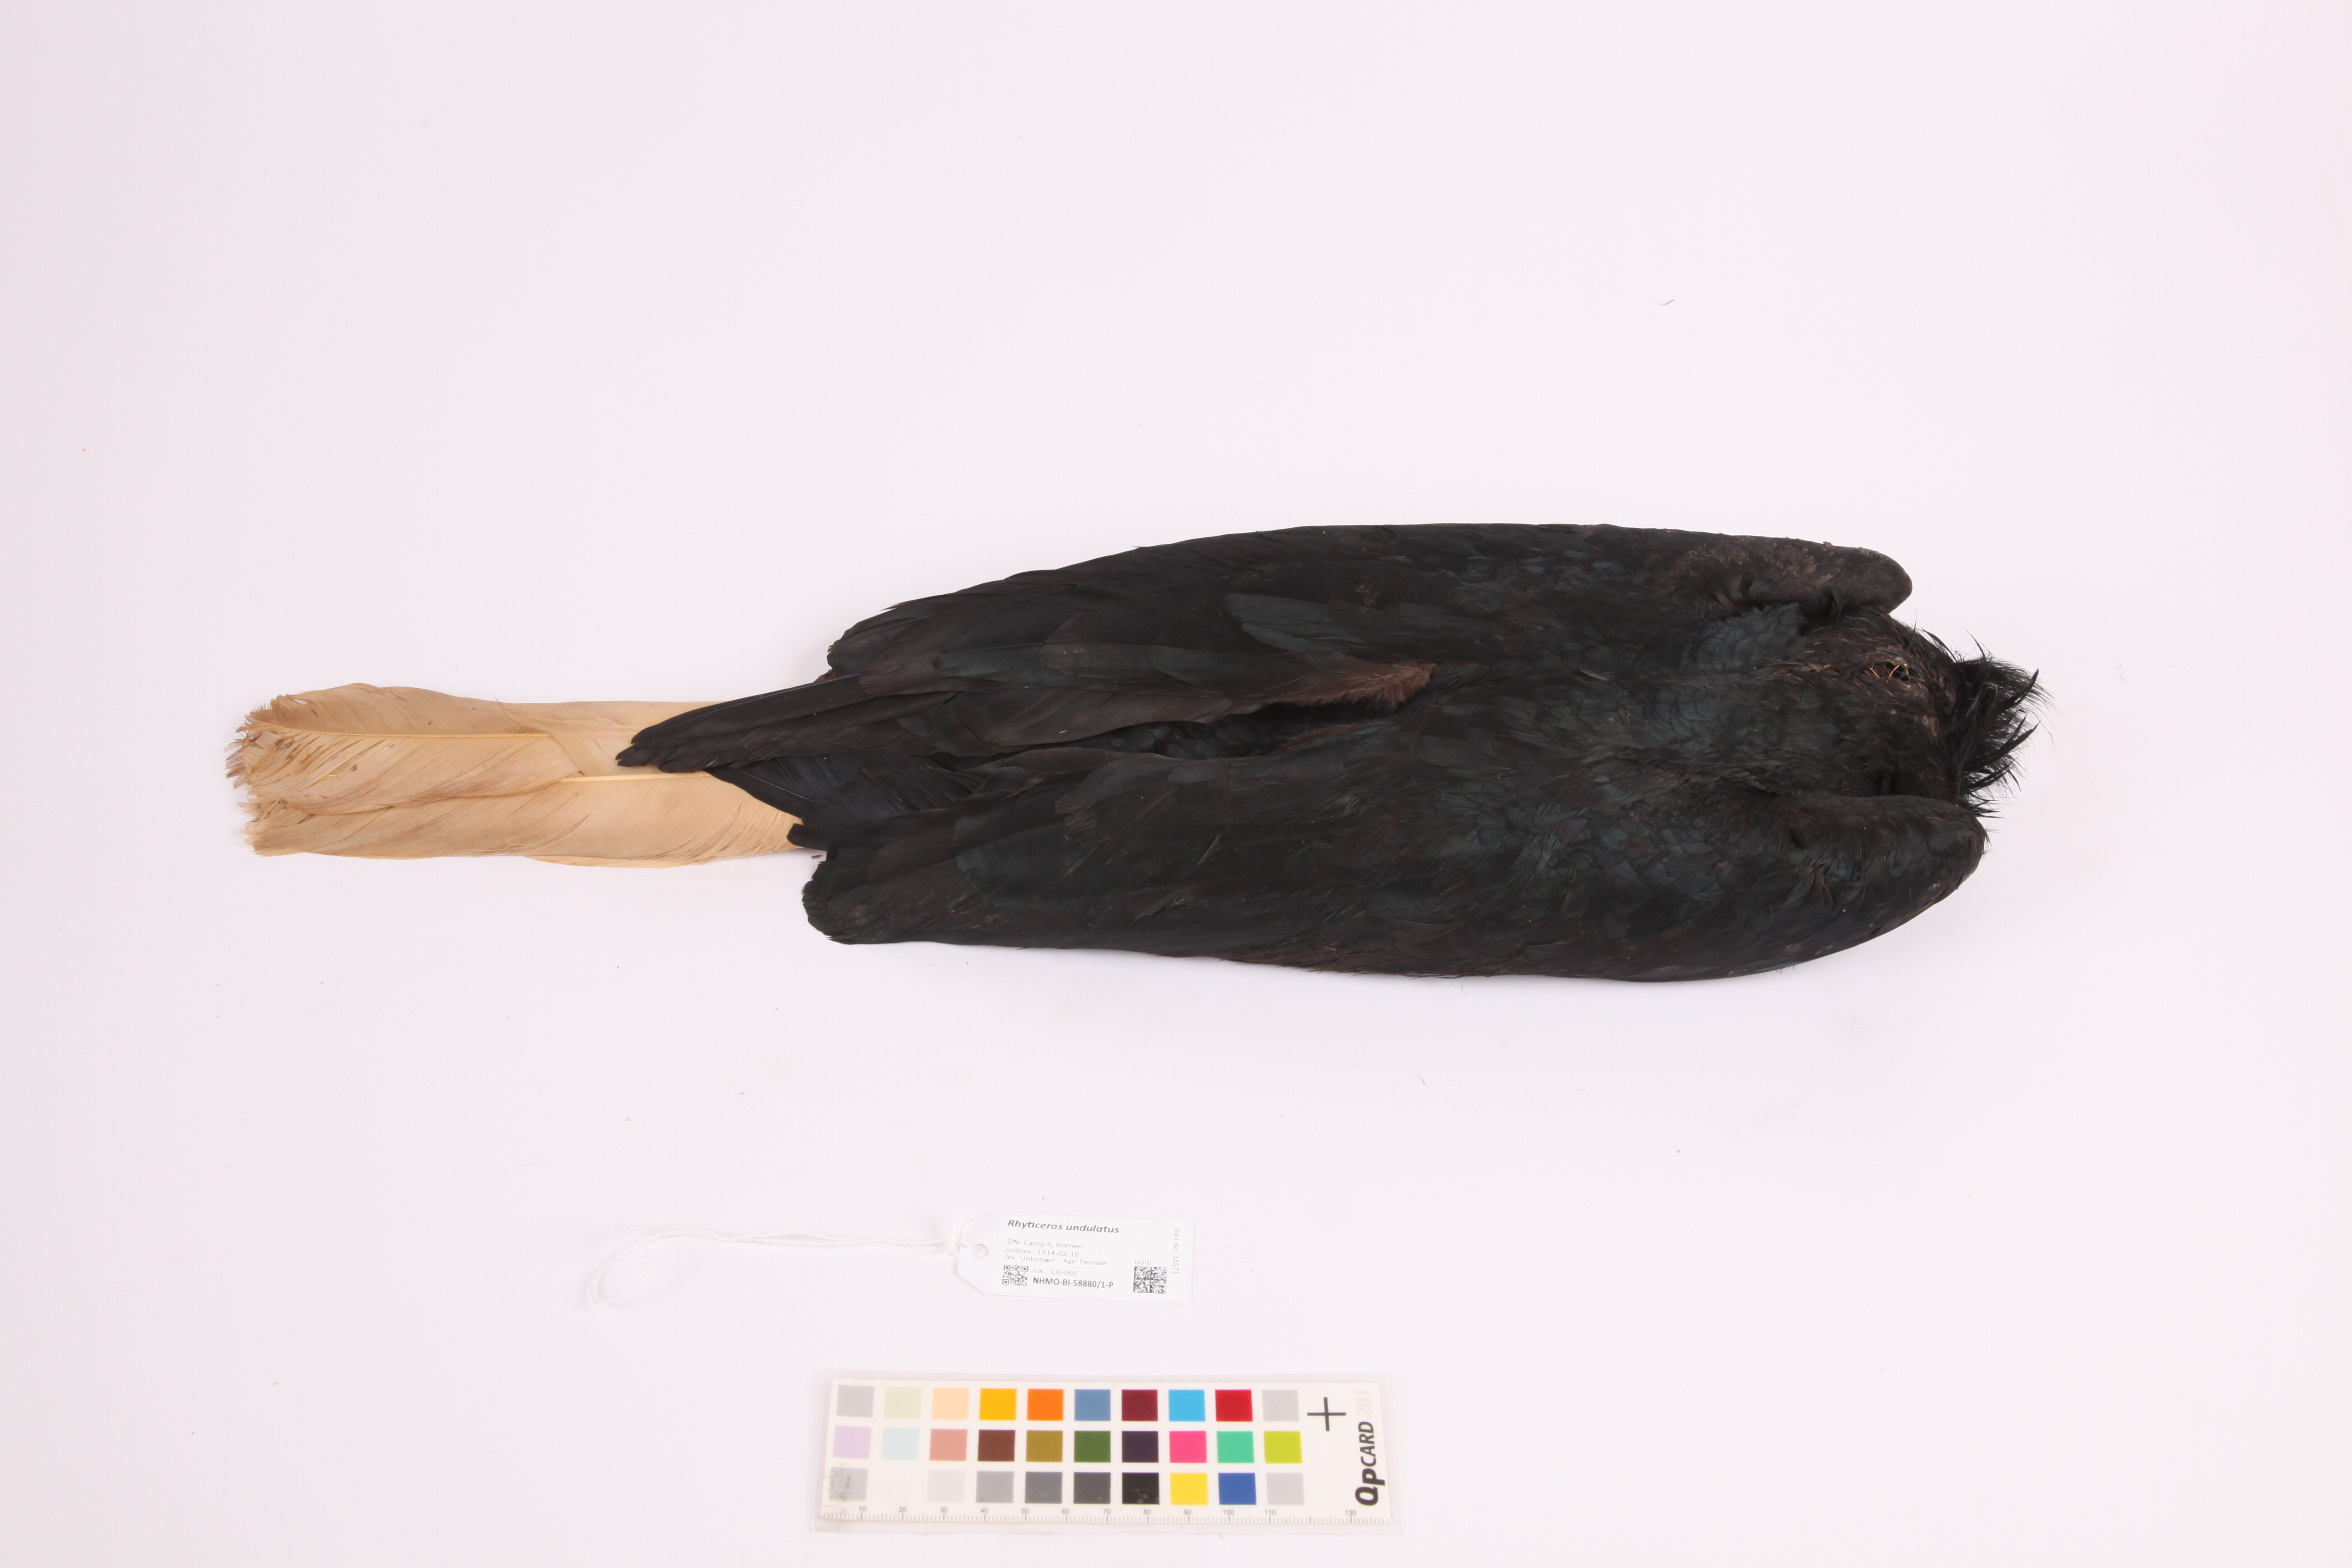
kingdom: Animalia
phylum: Chordata
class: Aves
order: Bucerotiformes
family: Bucerotidae
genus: Rhyticeros
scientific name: Rhyticeros undulatus
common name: Wreathed hornbill
